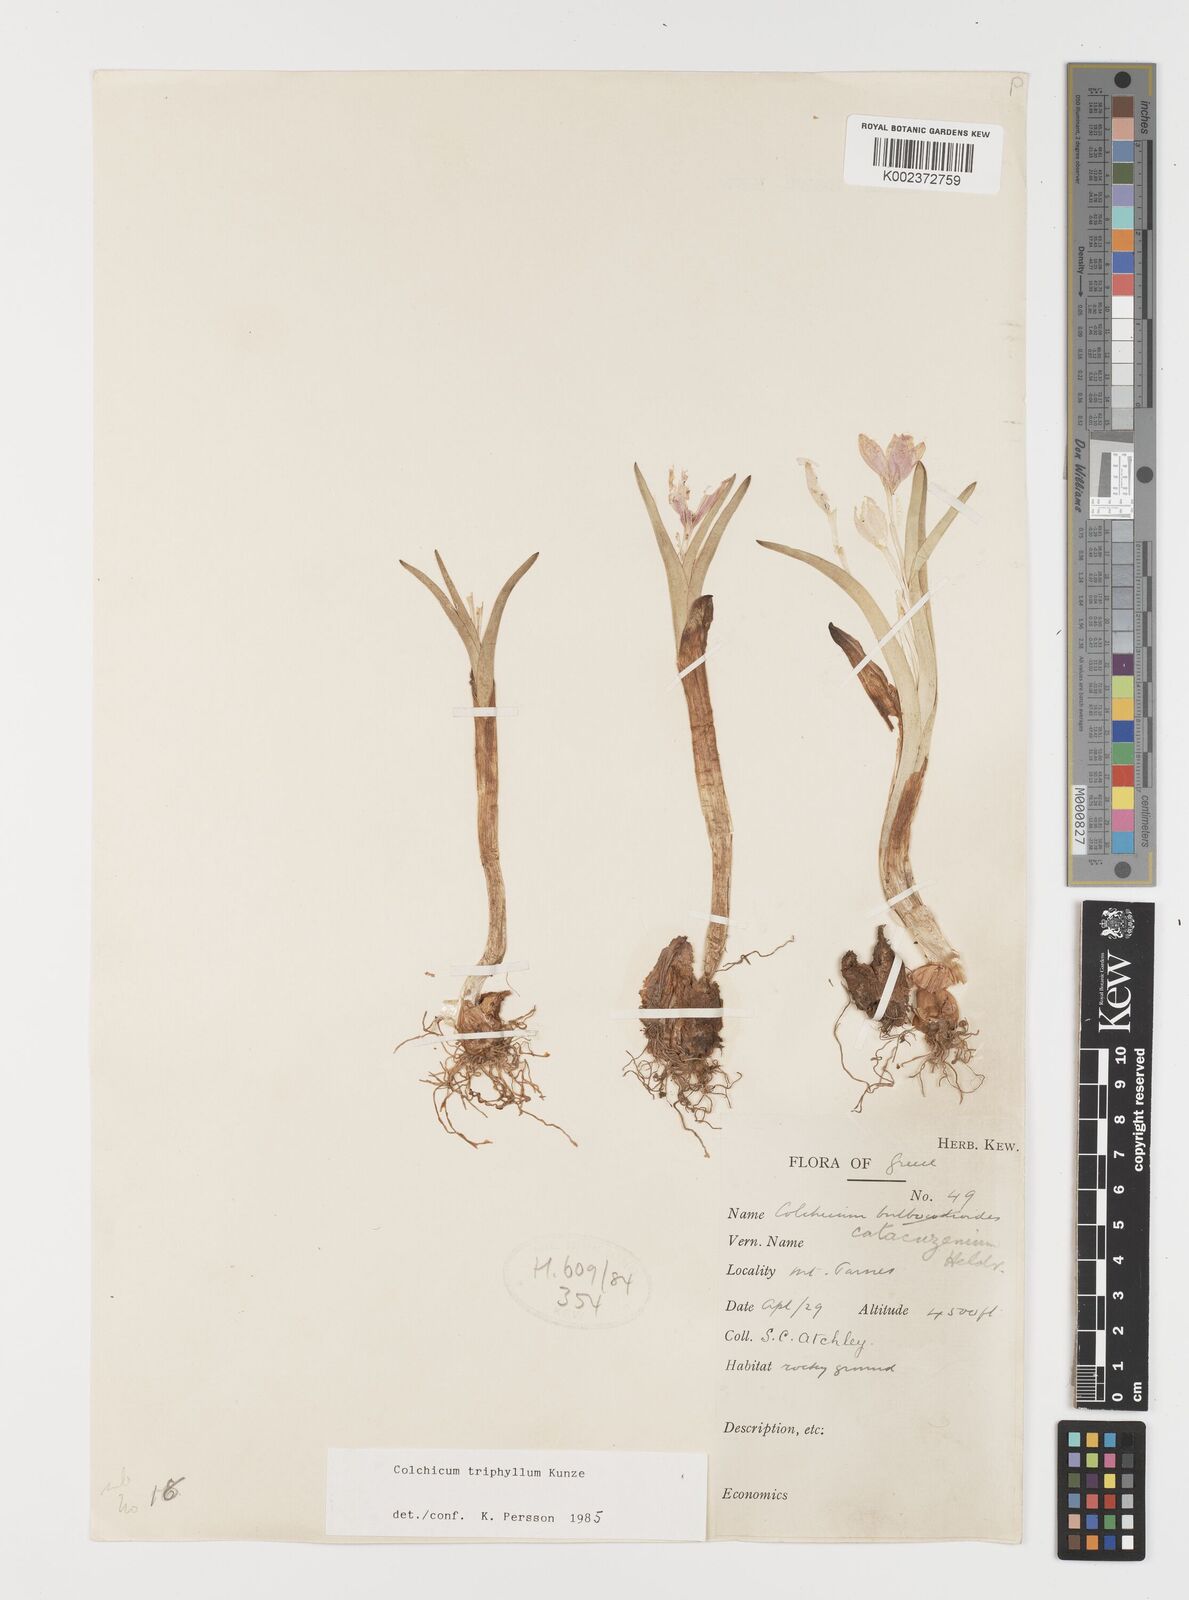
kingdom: Plantae
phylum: Tracheophyta
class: Liliopsida
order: Liliales
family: Colchicaceae
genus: Colchicum
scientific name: Colchicum triphyllum
